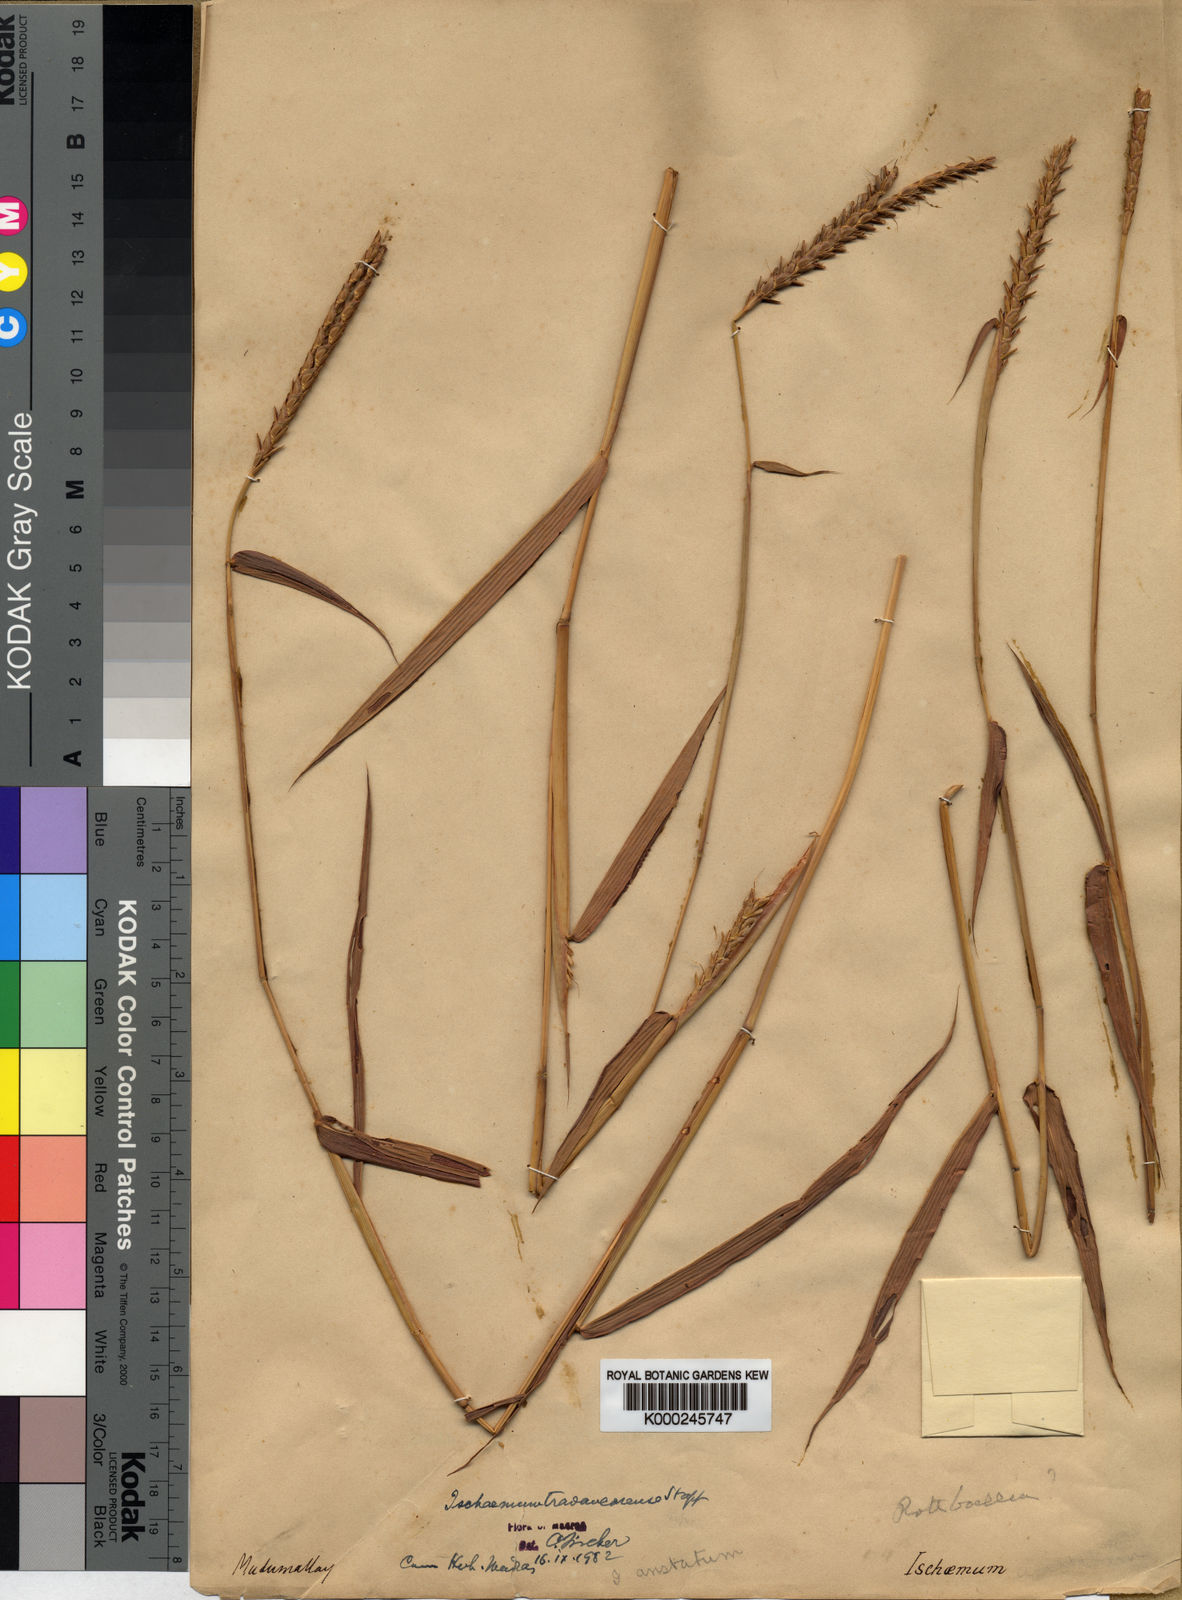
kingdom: Plantae
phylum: Tracheophyta
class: Liliopsida
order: Poales
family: Poaceae
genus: Ischaemum
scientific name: Ischaemum travancorense
